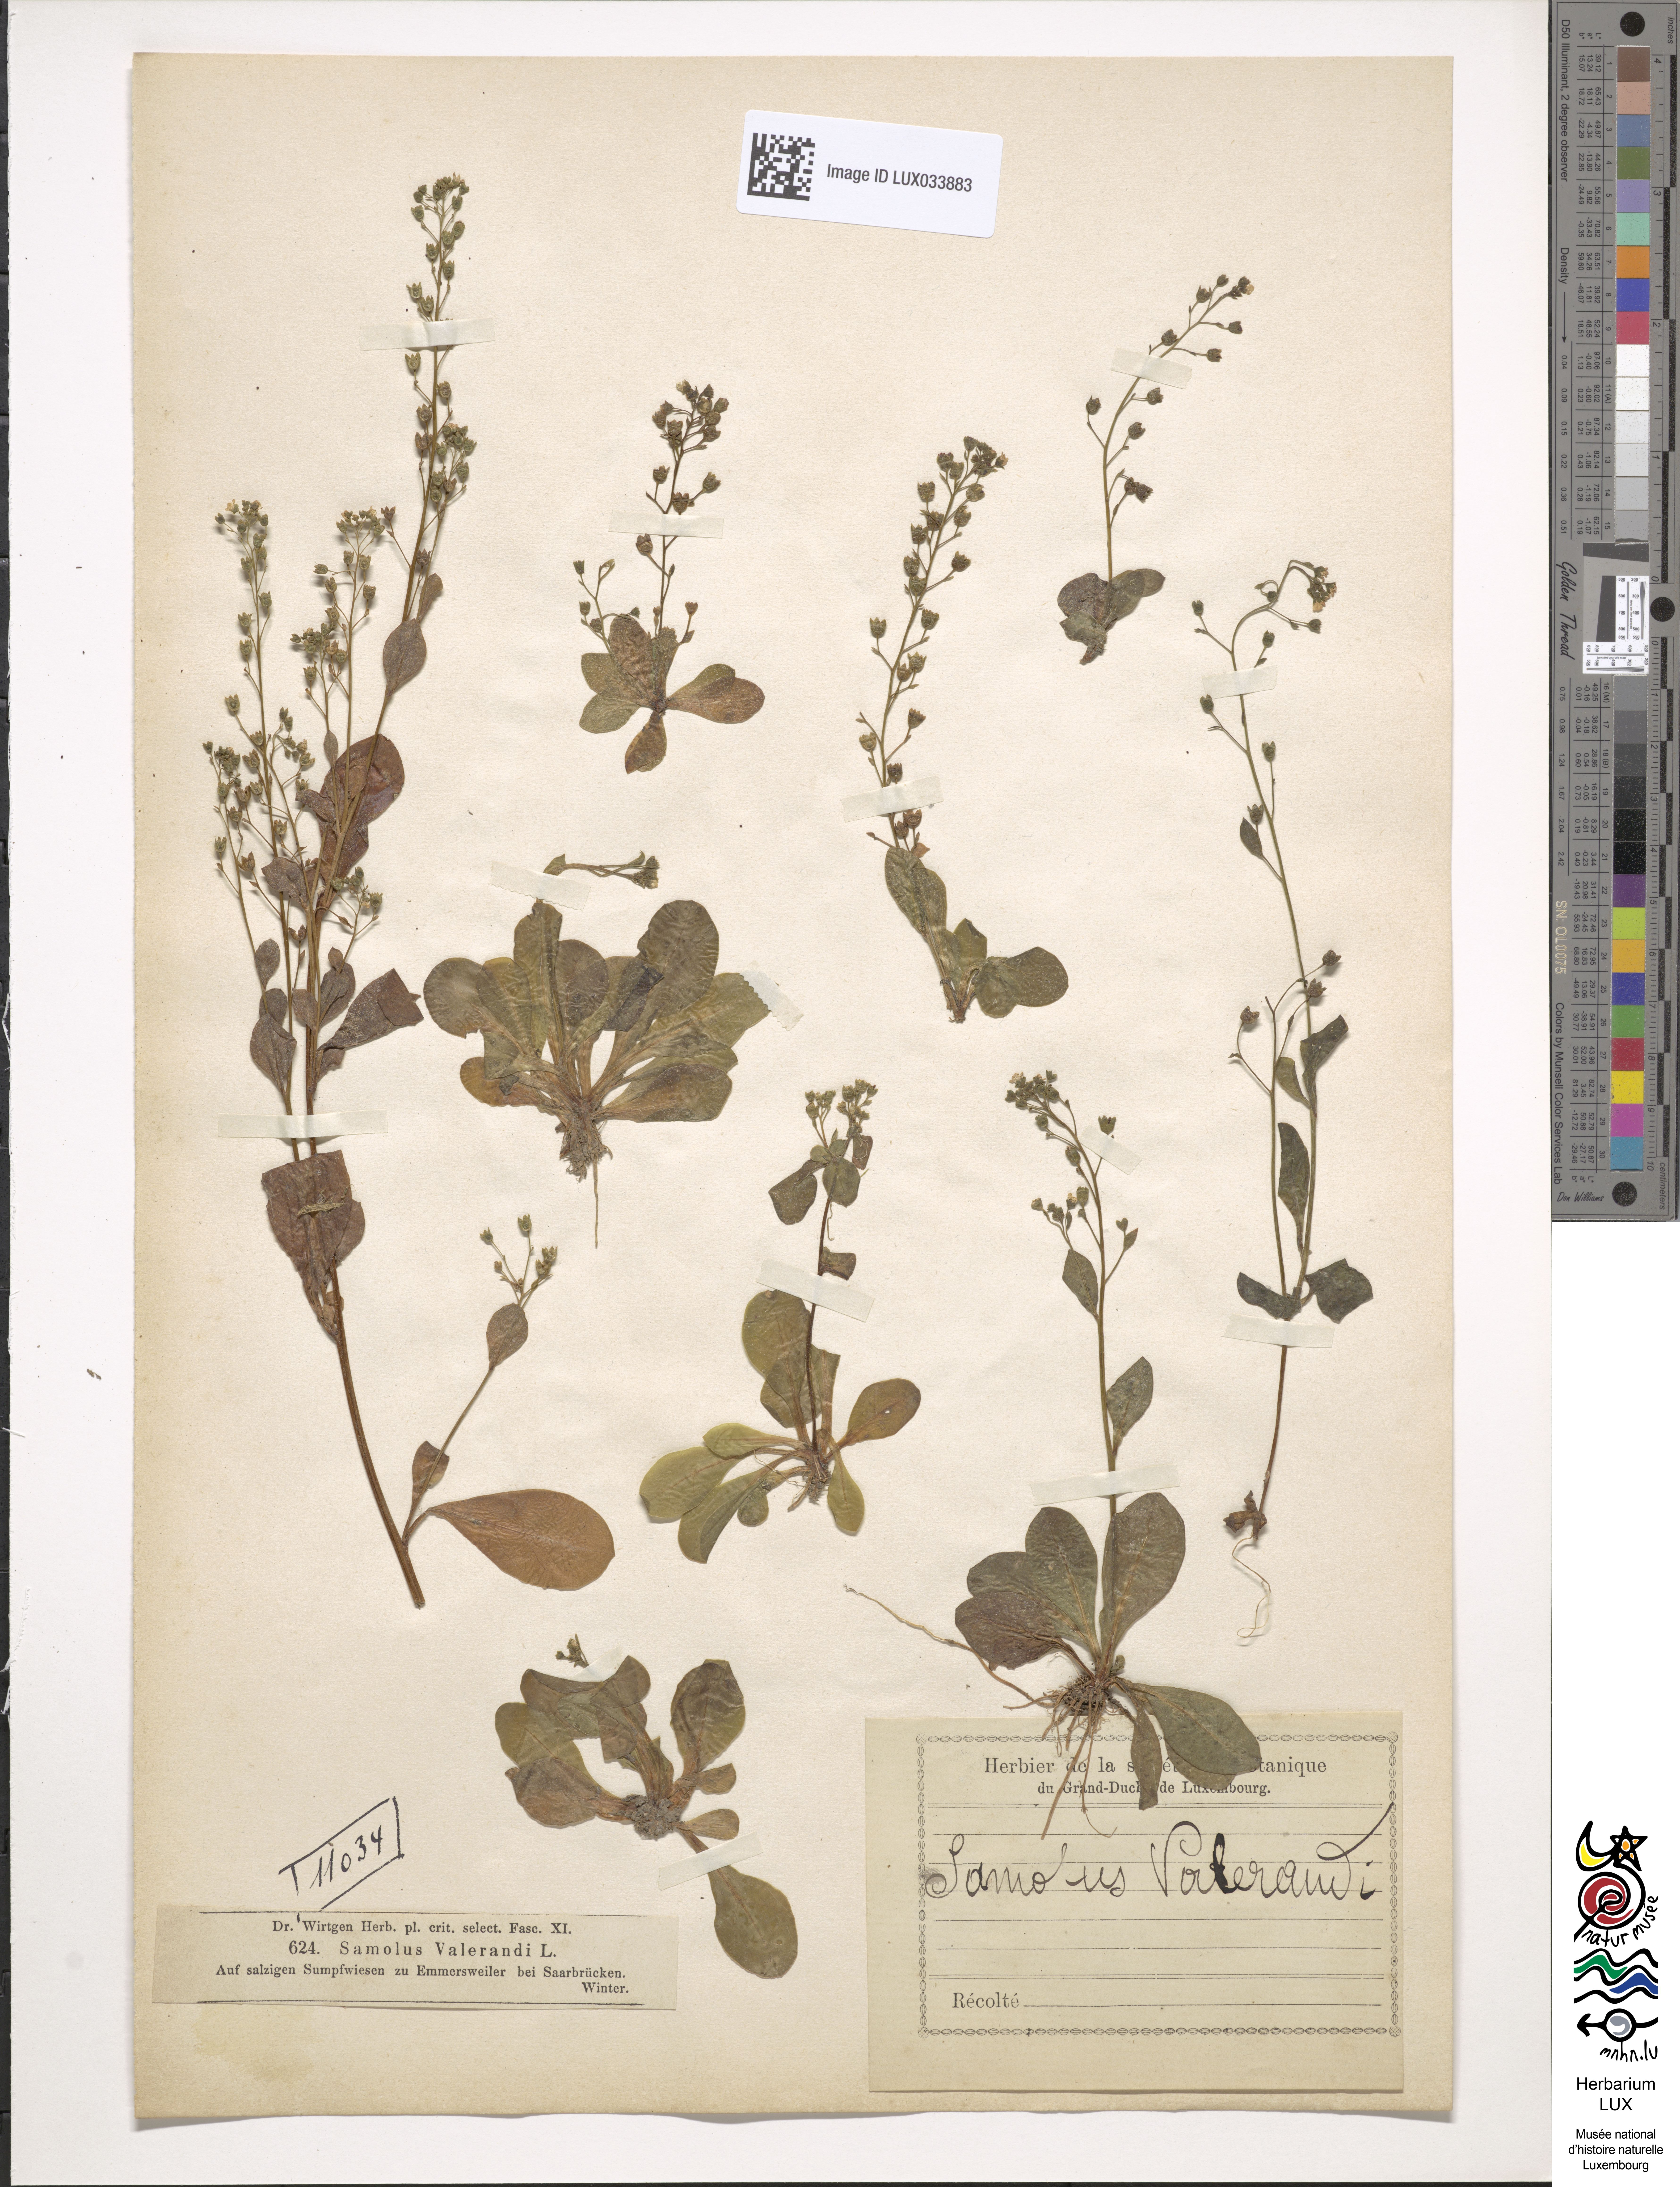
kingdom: Plantae
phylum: Tracheophyta
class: Magnoliopsida
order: Ericales
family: Primulaceae
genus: Samolus
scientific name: Samolus valerandi
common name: Brookweed
